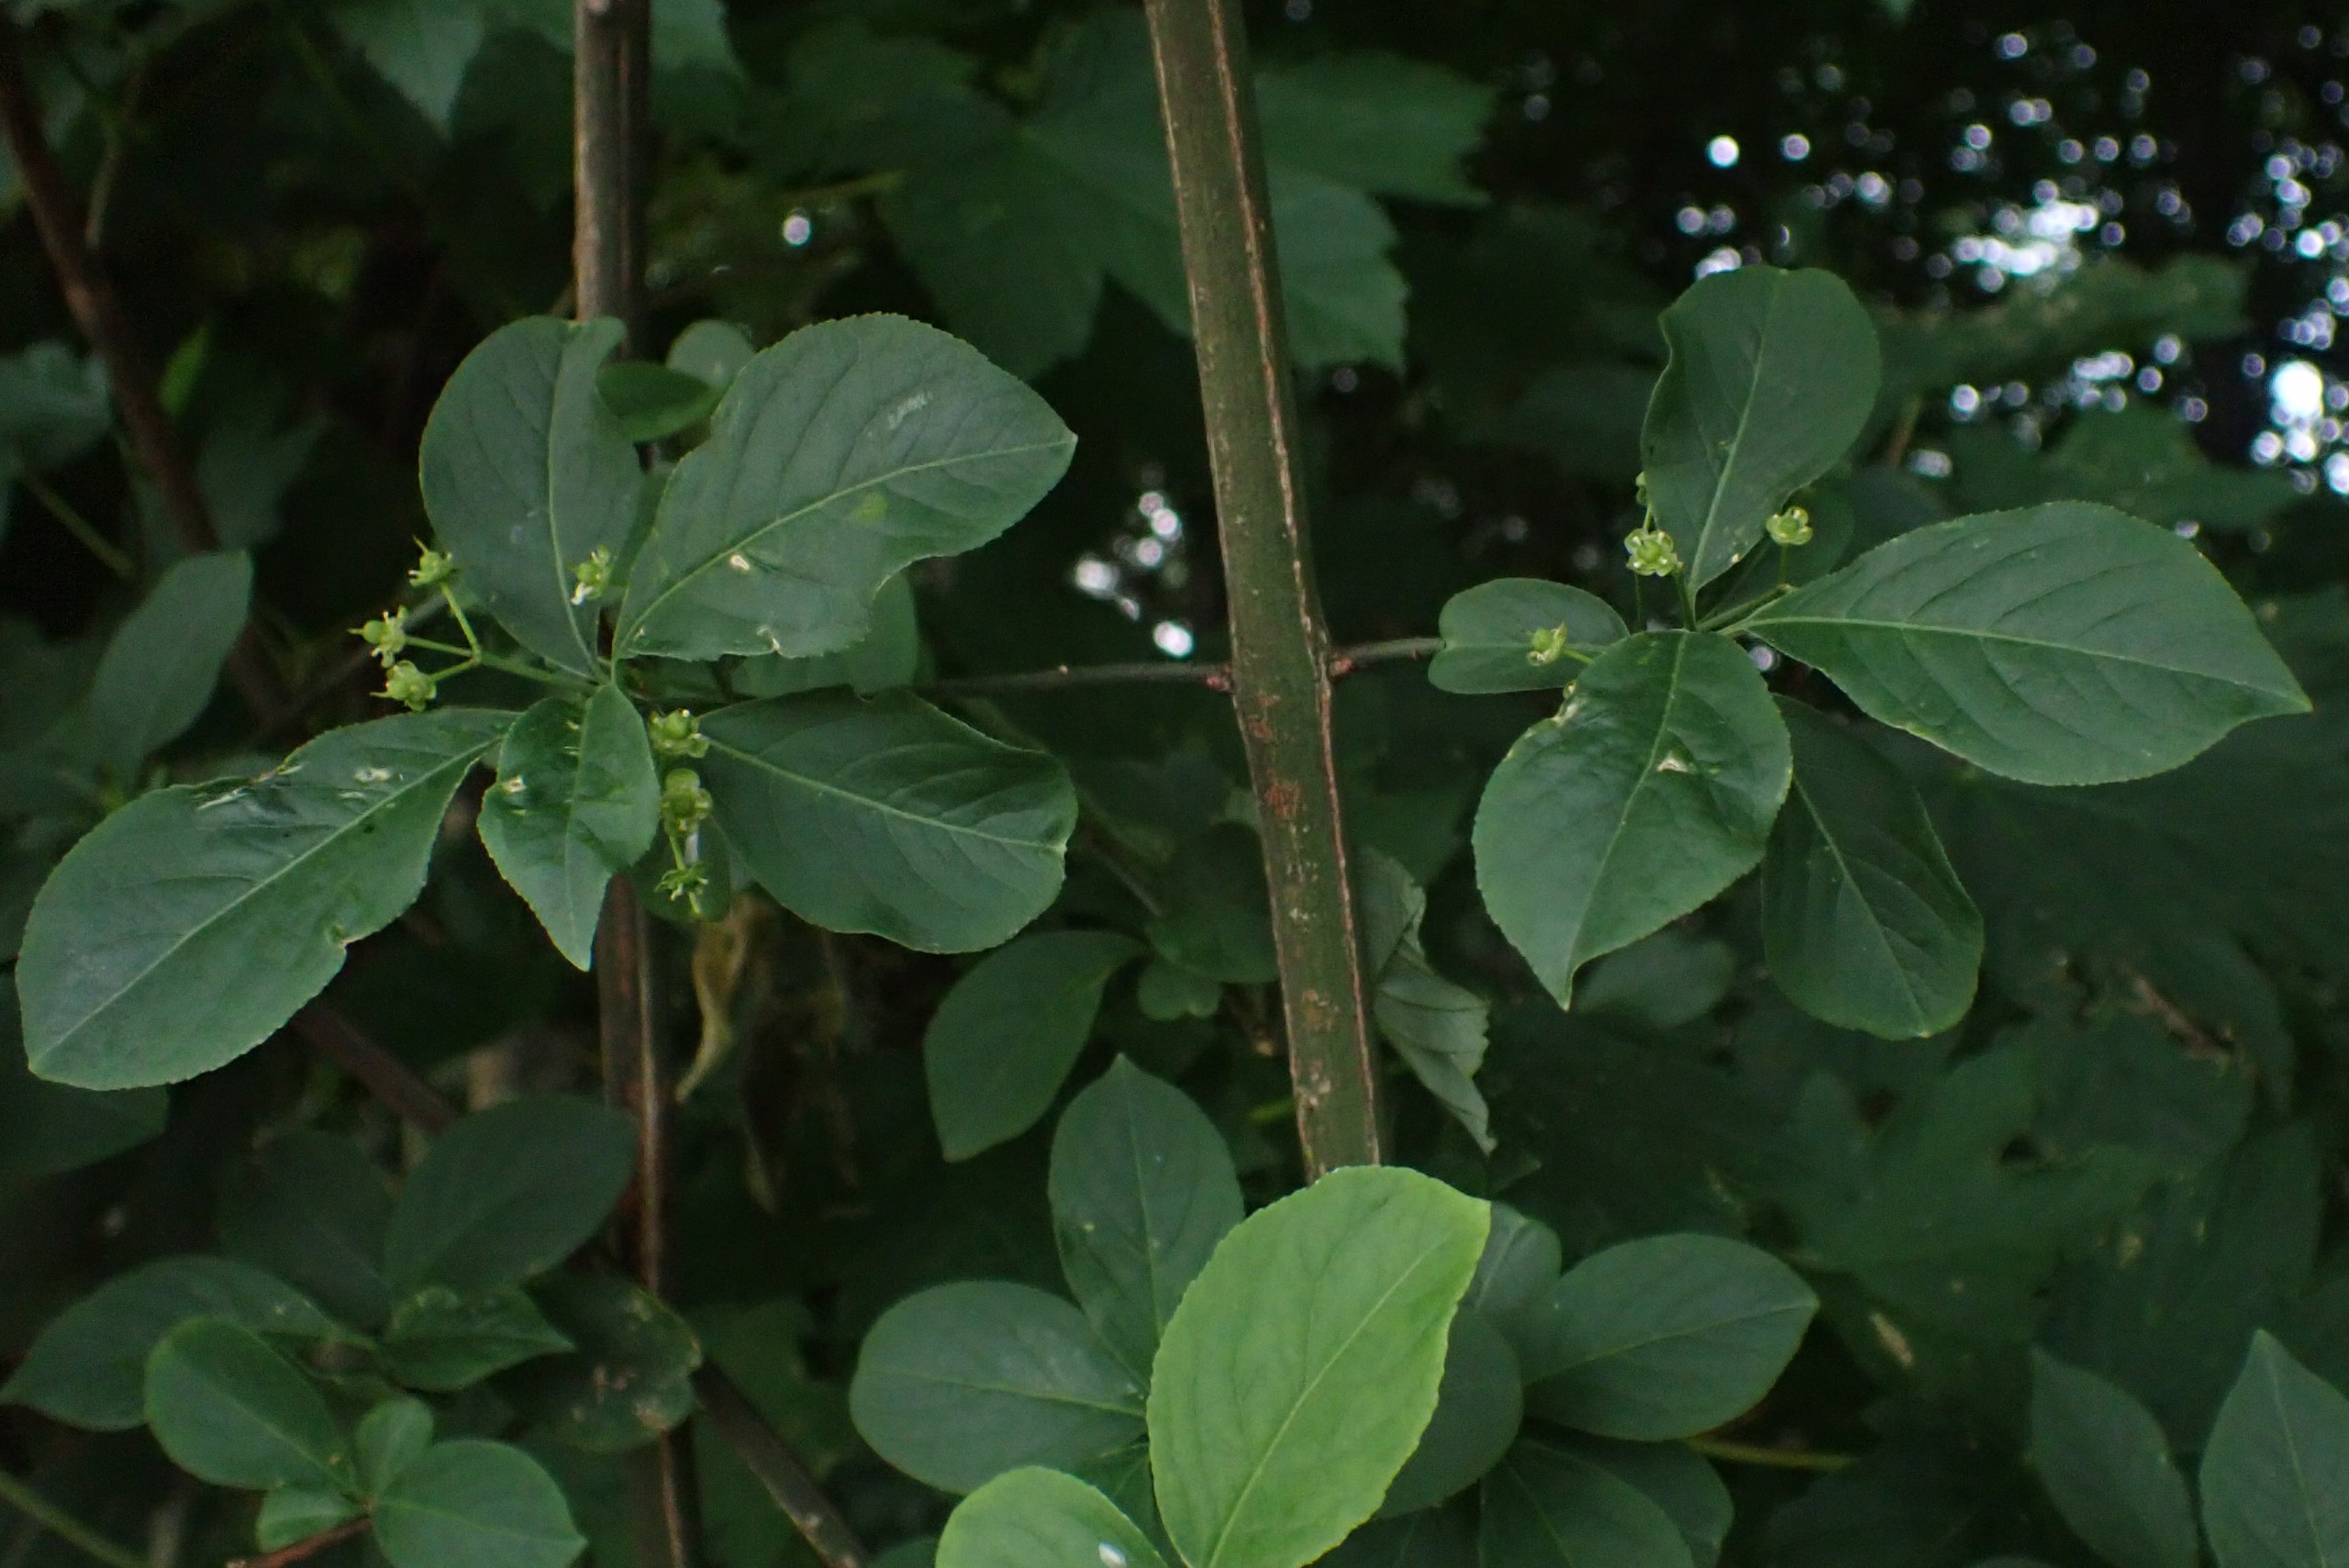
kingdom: Plantae
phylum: Tracheophyta
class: Magnoliopsida
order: Celastrales
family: Celastraceae
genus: Euonymus
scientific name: Euonymus europaeus
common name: Benved
